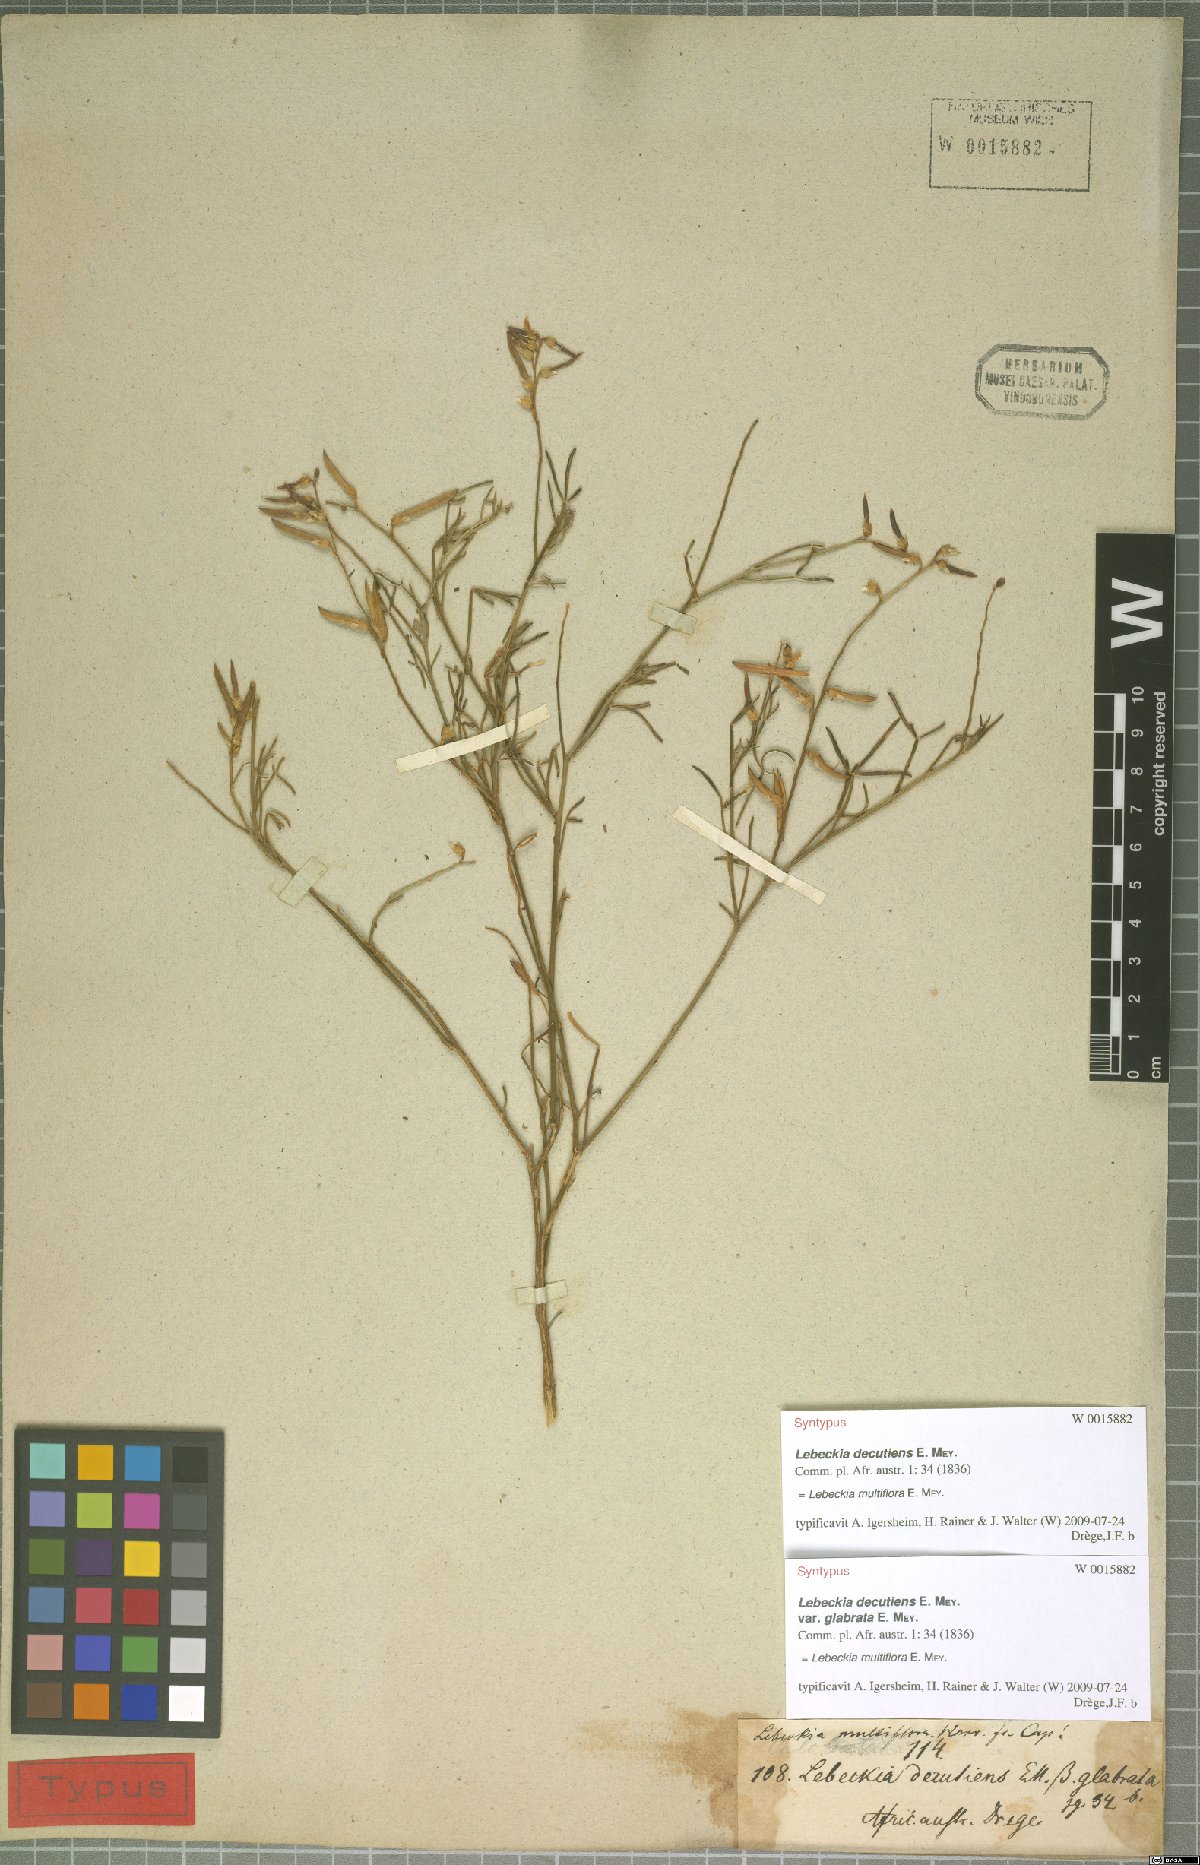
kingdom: Plantae
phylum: Tracheophyta
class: Magnoliopsida
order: Fabales
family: Fabaceae
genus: Calobota
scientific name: Calobota angustifolia
